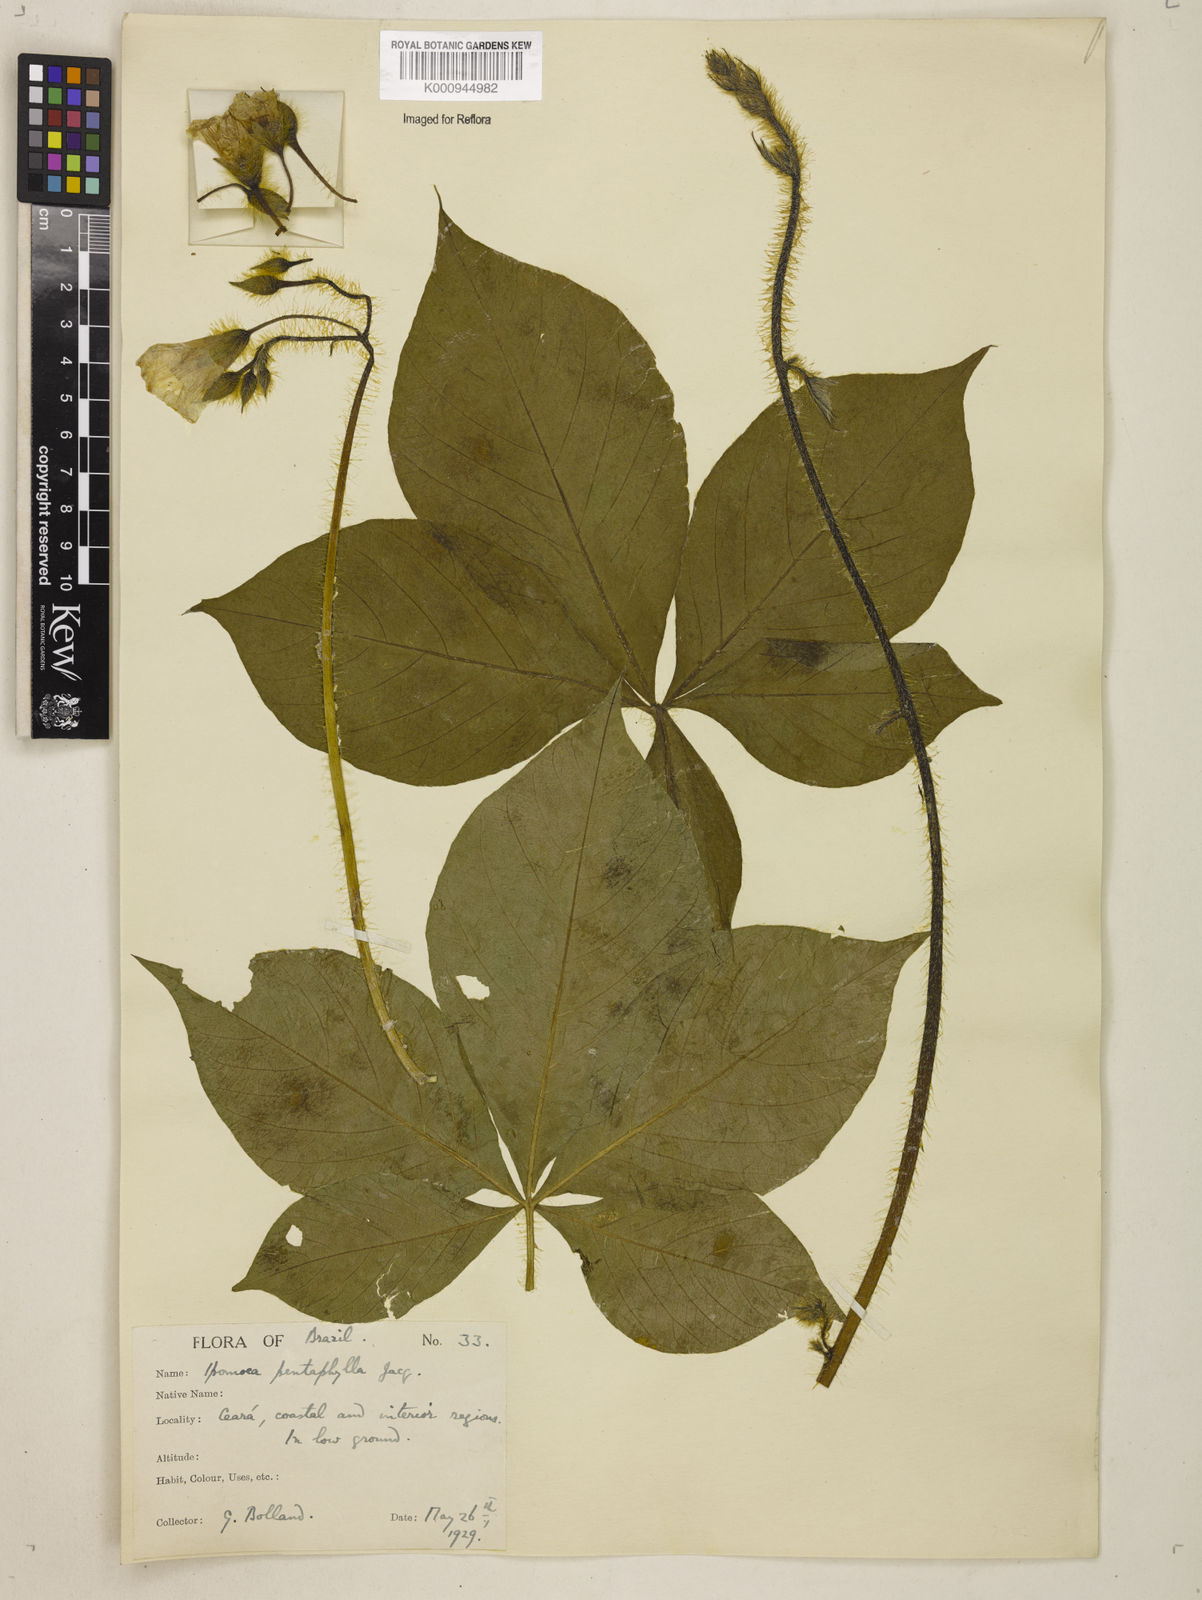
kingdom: Plantae
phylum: Tracheophyta
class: Magnoliopsida
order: Solanales
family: Convolvulaceae
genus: Distimake
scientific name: Distimake aegyptius
